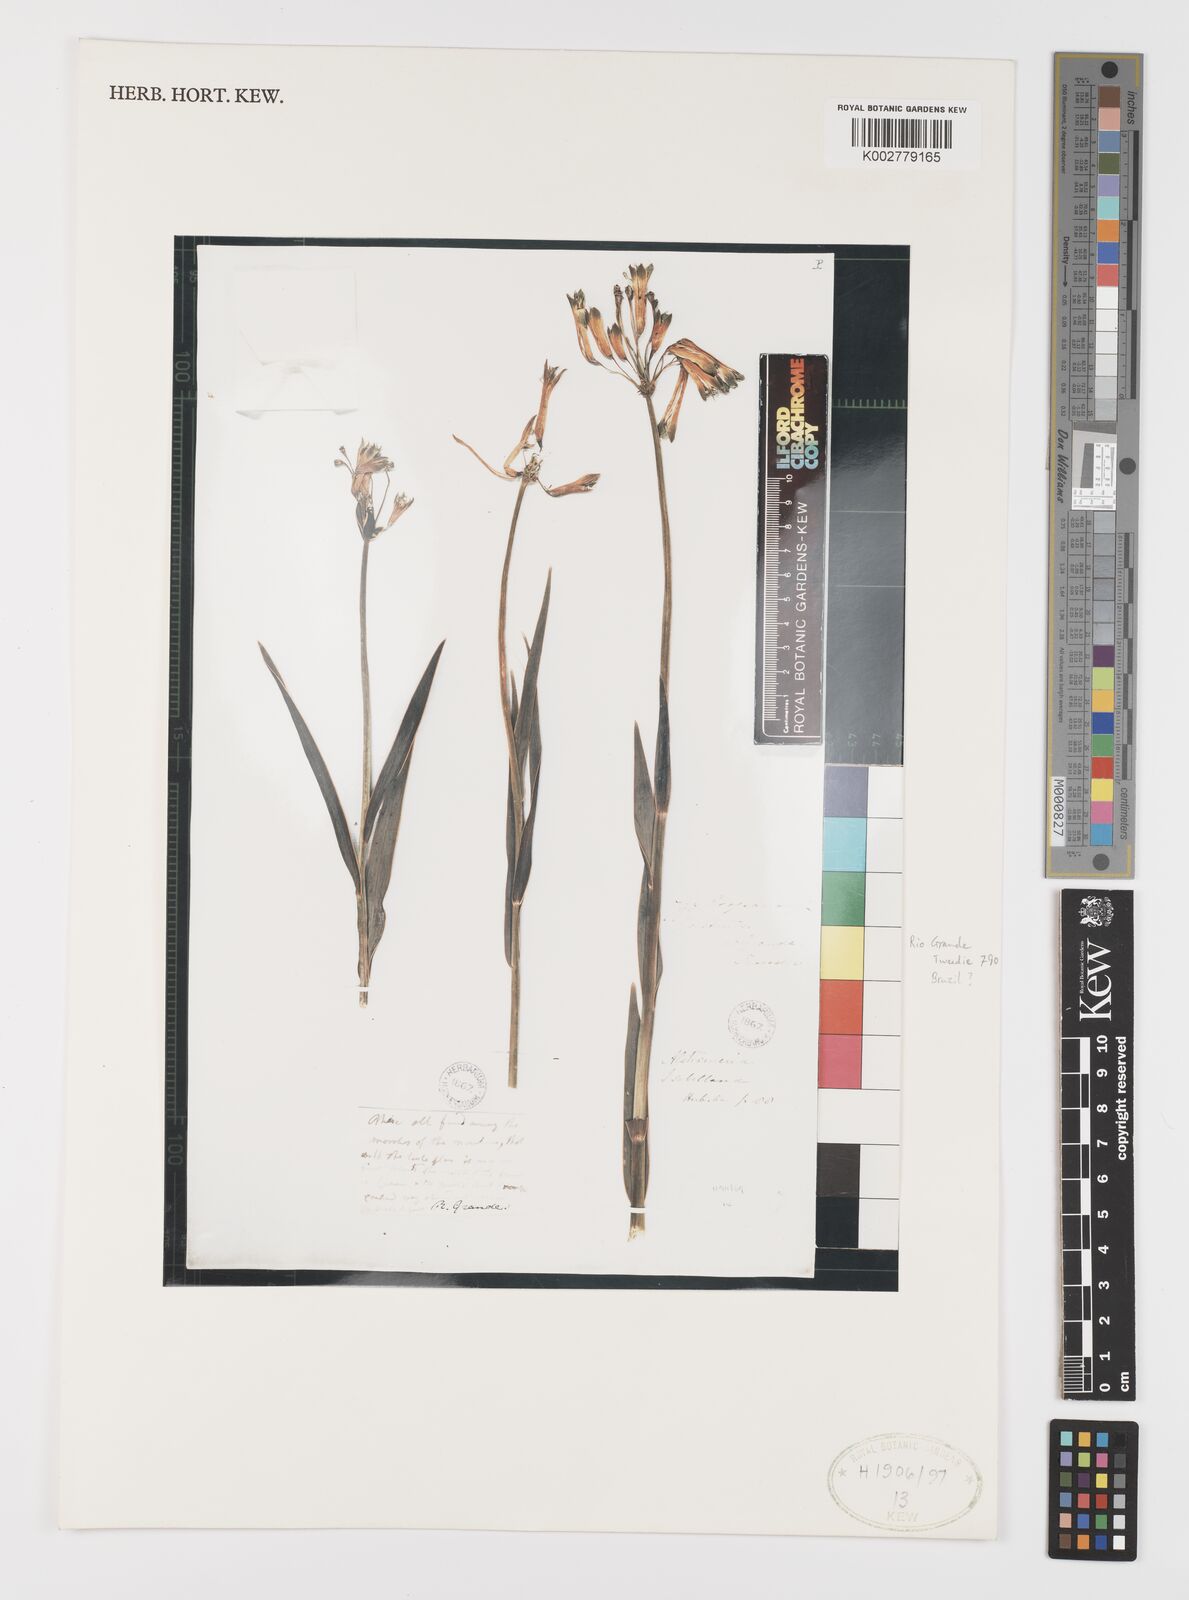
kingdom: Plantae
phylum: Tracheophyta
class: Liliopsida
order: Liliales
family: Alstroemeriaceae
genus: Alstroemeria
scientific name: Alstroemeria isabelleana
